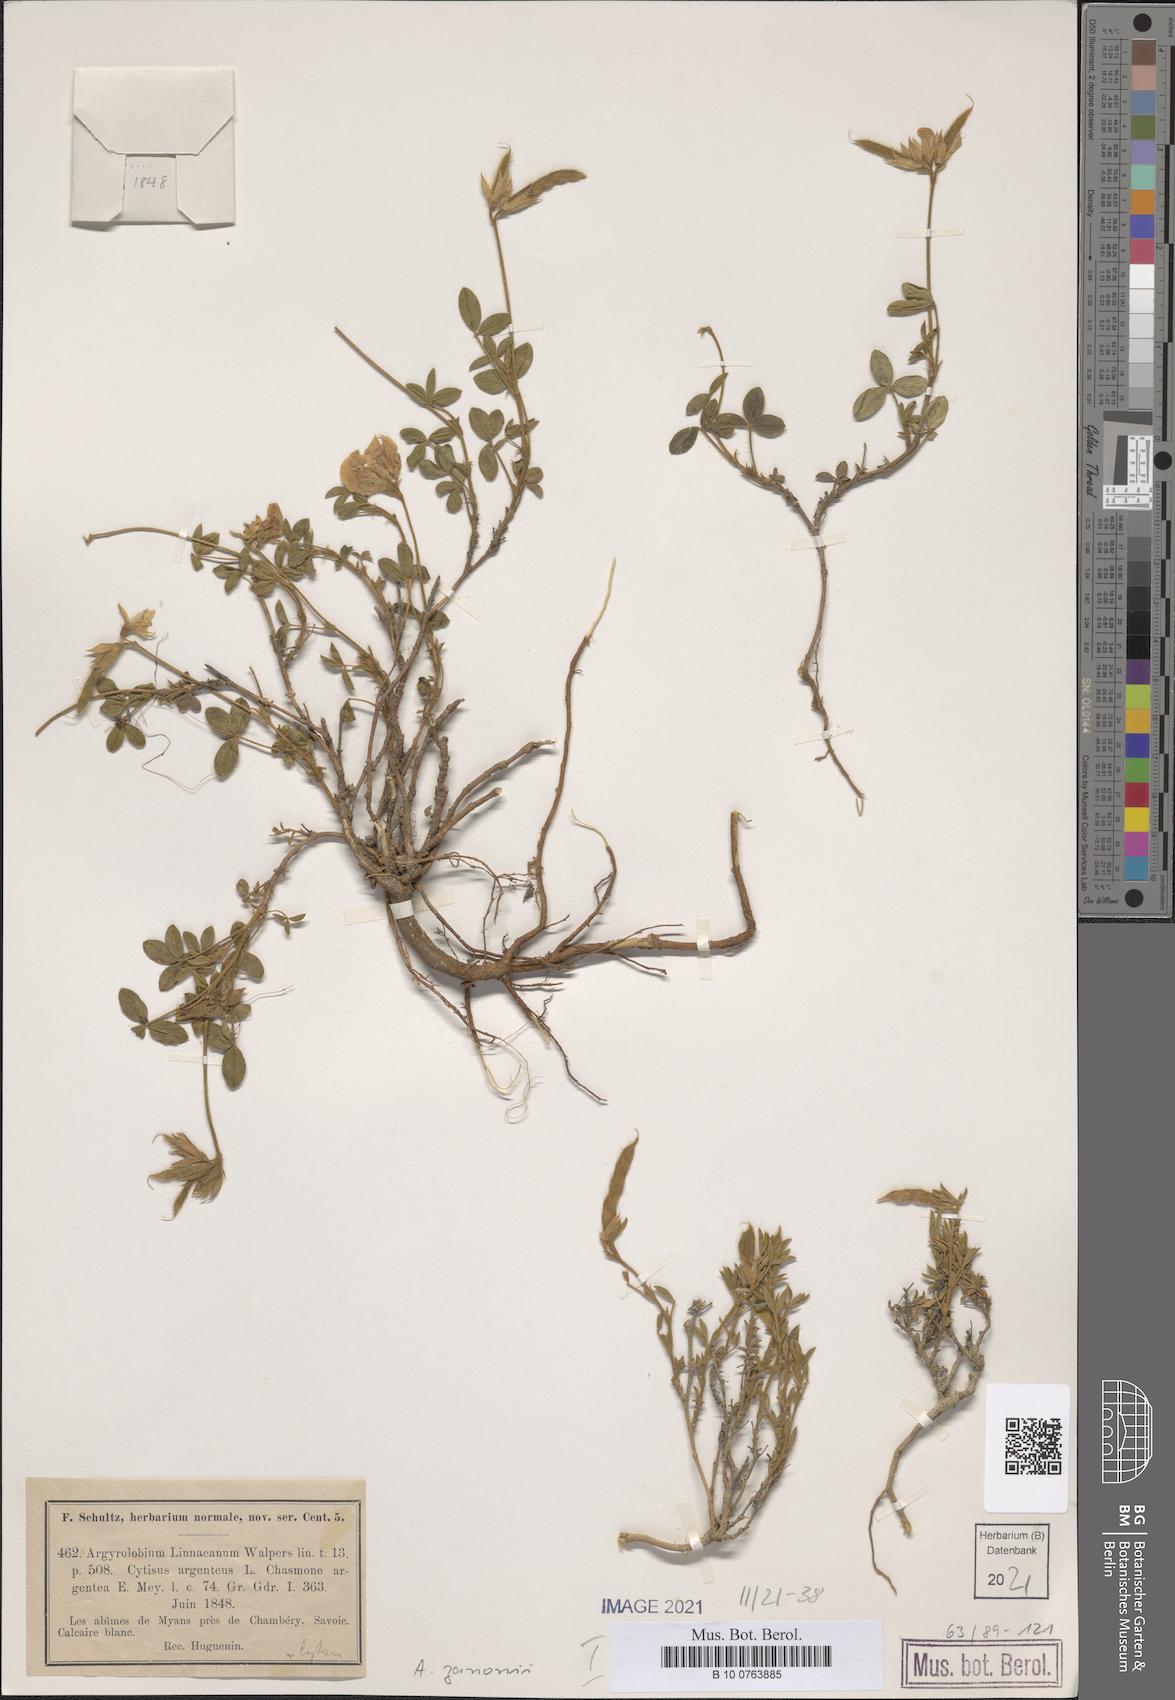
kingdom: Plantae
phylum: Tracheophyta
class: Magnoliopsida
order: Fabales
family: Fabaceae
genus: Argyrolobium
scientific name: Argyrolobium zanonii
